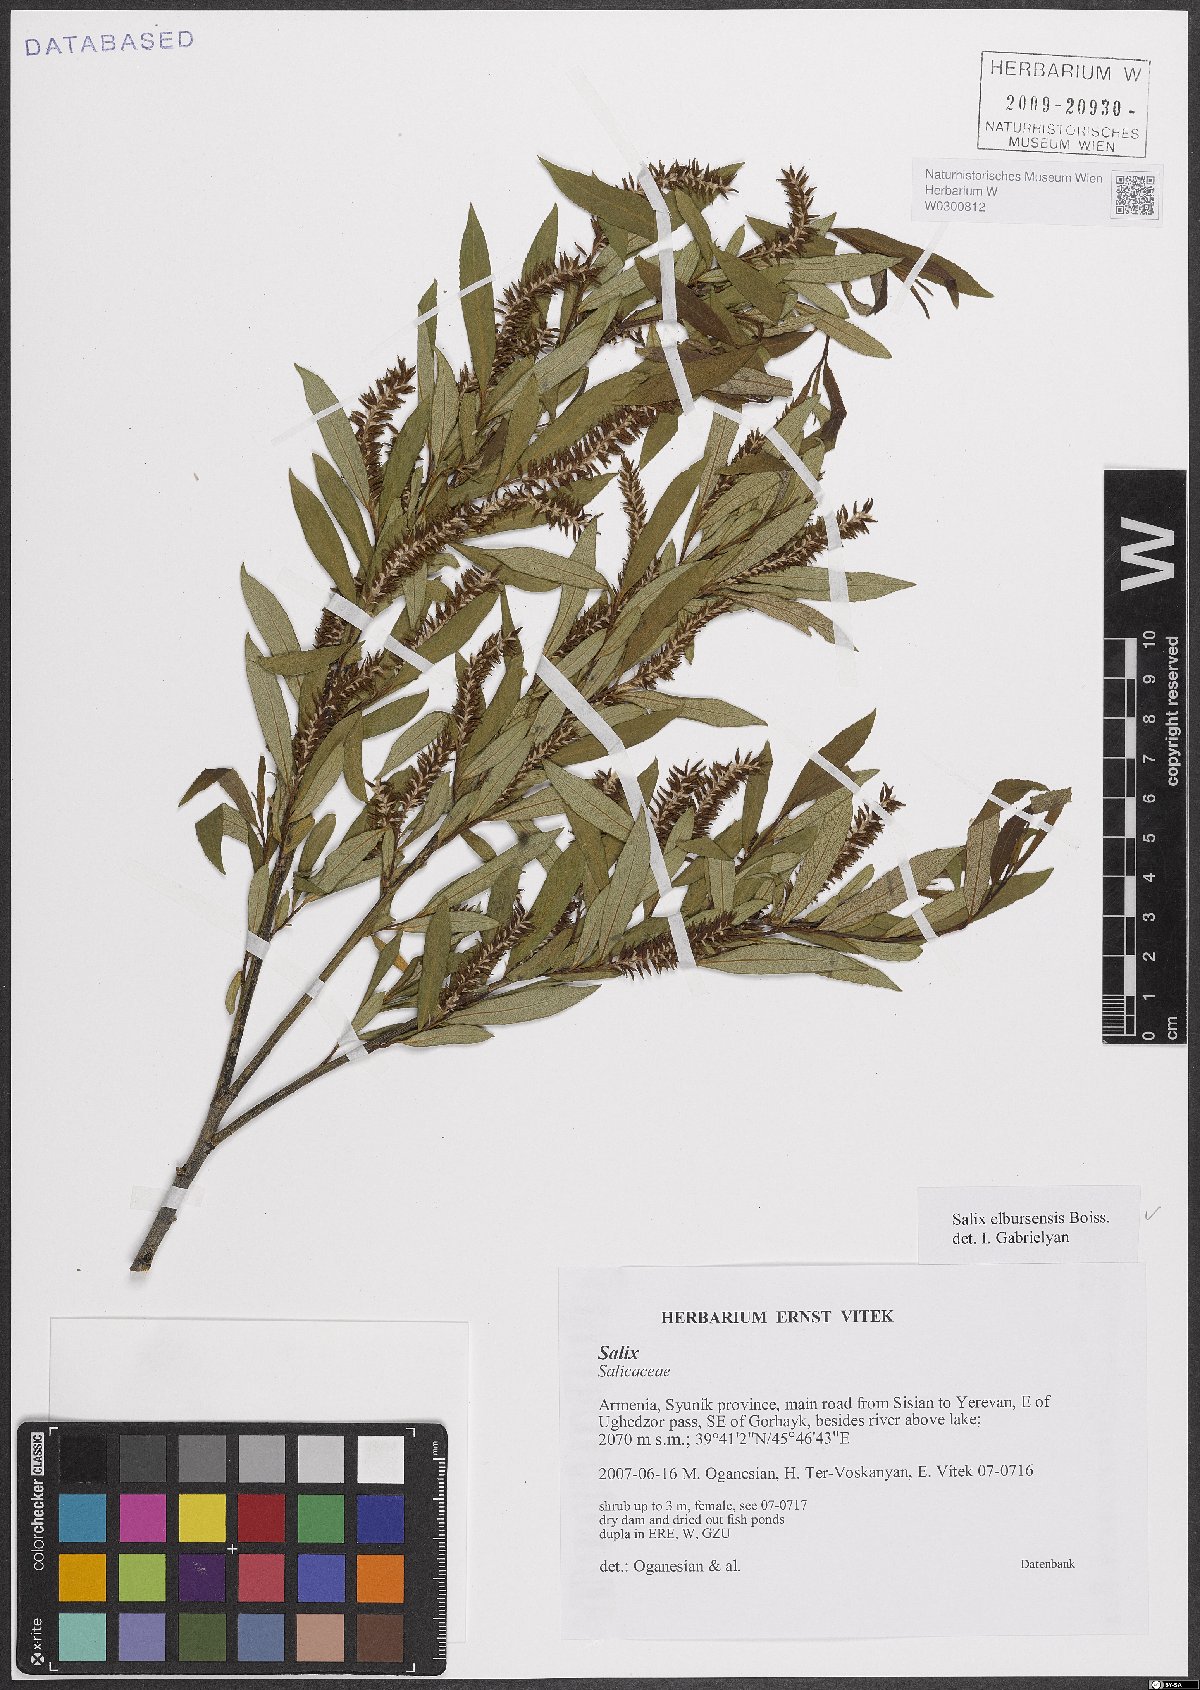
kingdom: Plantae
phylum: Tracheophyta
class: Magnoliopsida
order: Malpighiales
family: Salicaceae
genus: Salix
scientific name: Salix elbursensis
